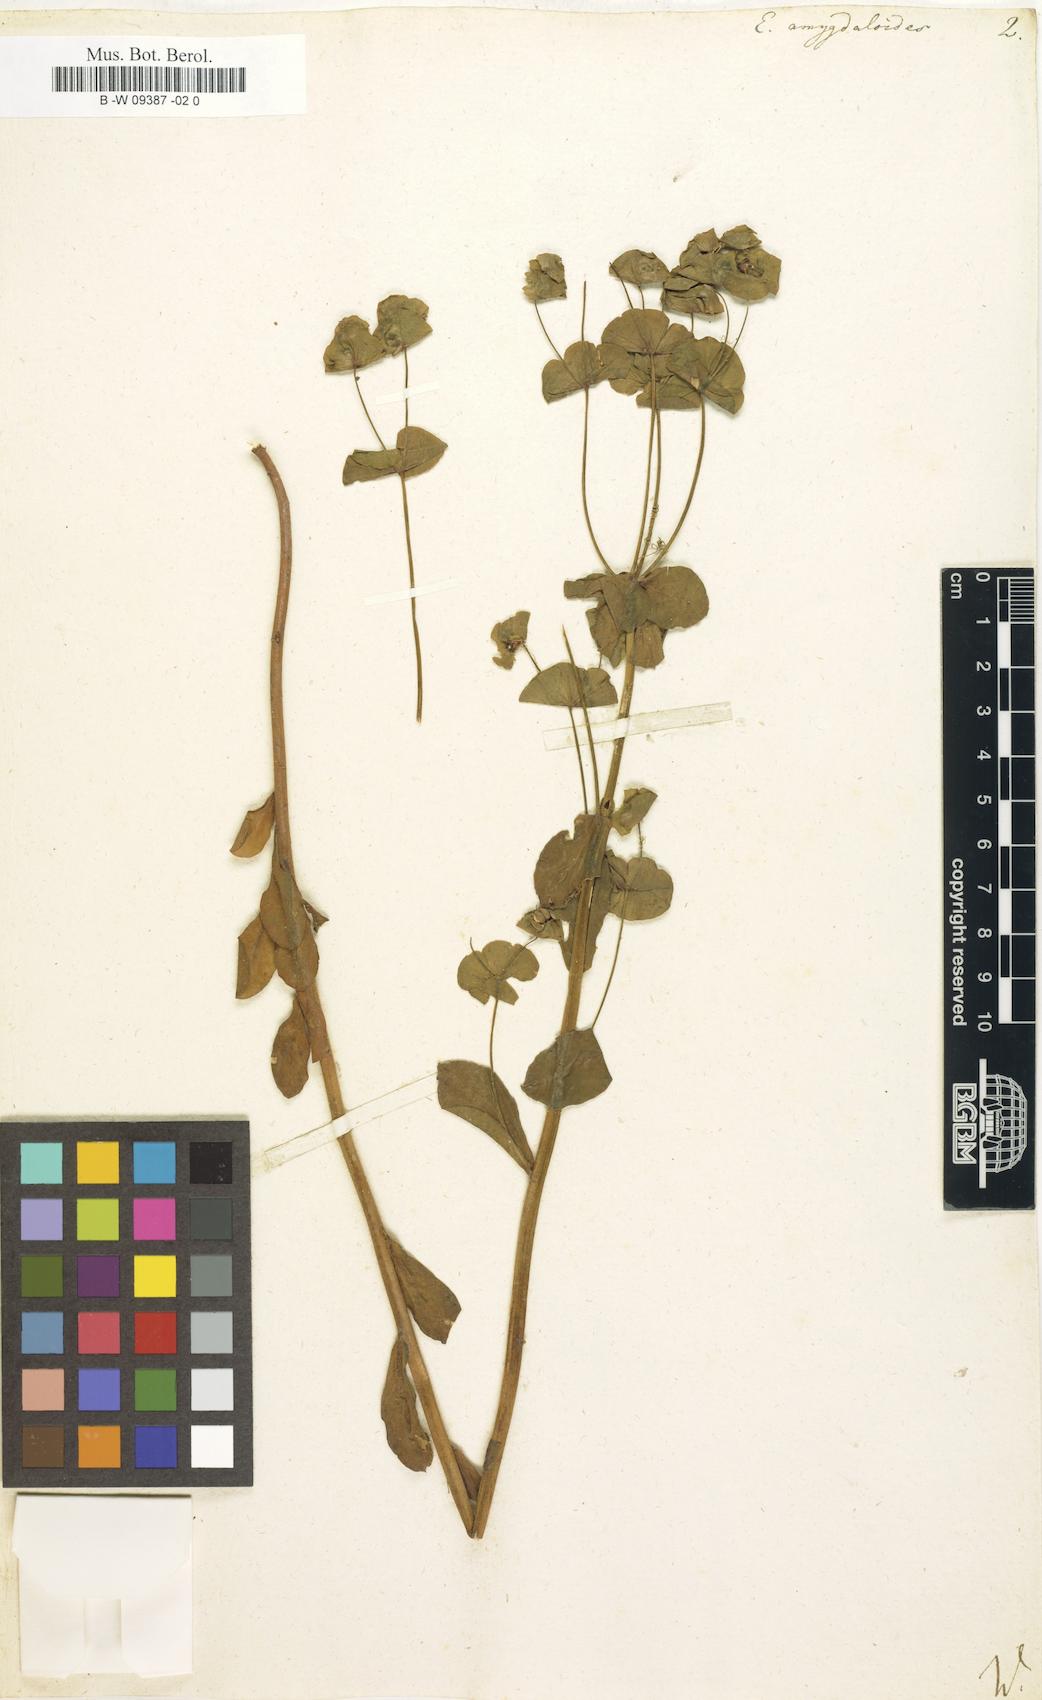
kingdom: Plantae
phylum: Tracheophyta
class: Magnoliopsida
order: Malpighiales
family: Euphorbiaceae
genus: Euphorbia
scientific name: Euphorbia amygdaloides
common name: Wood spurge
